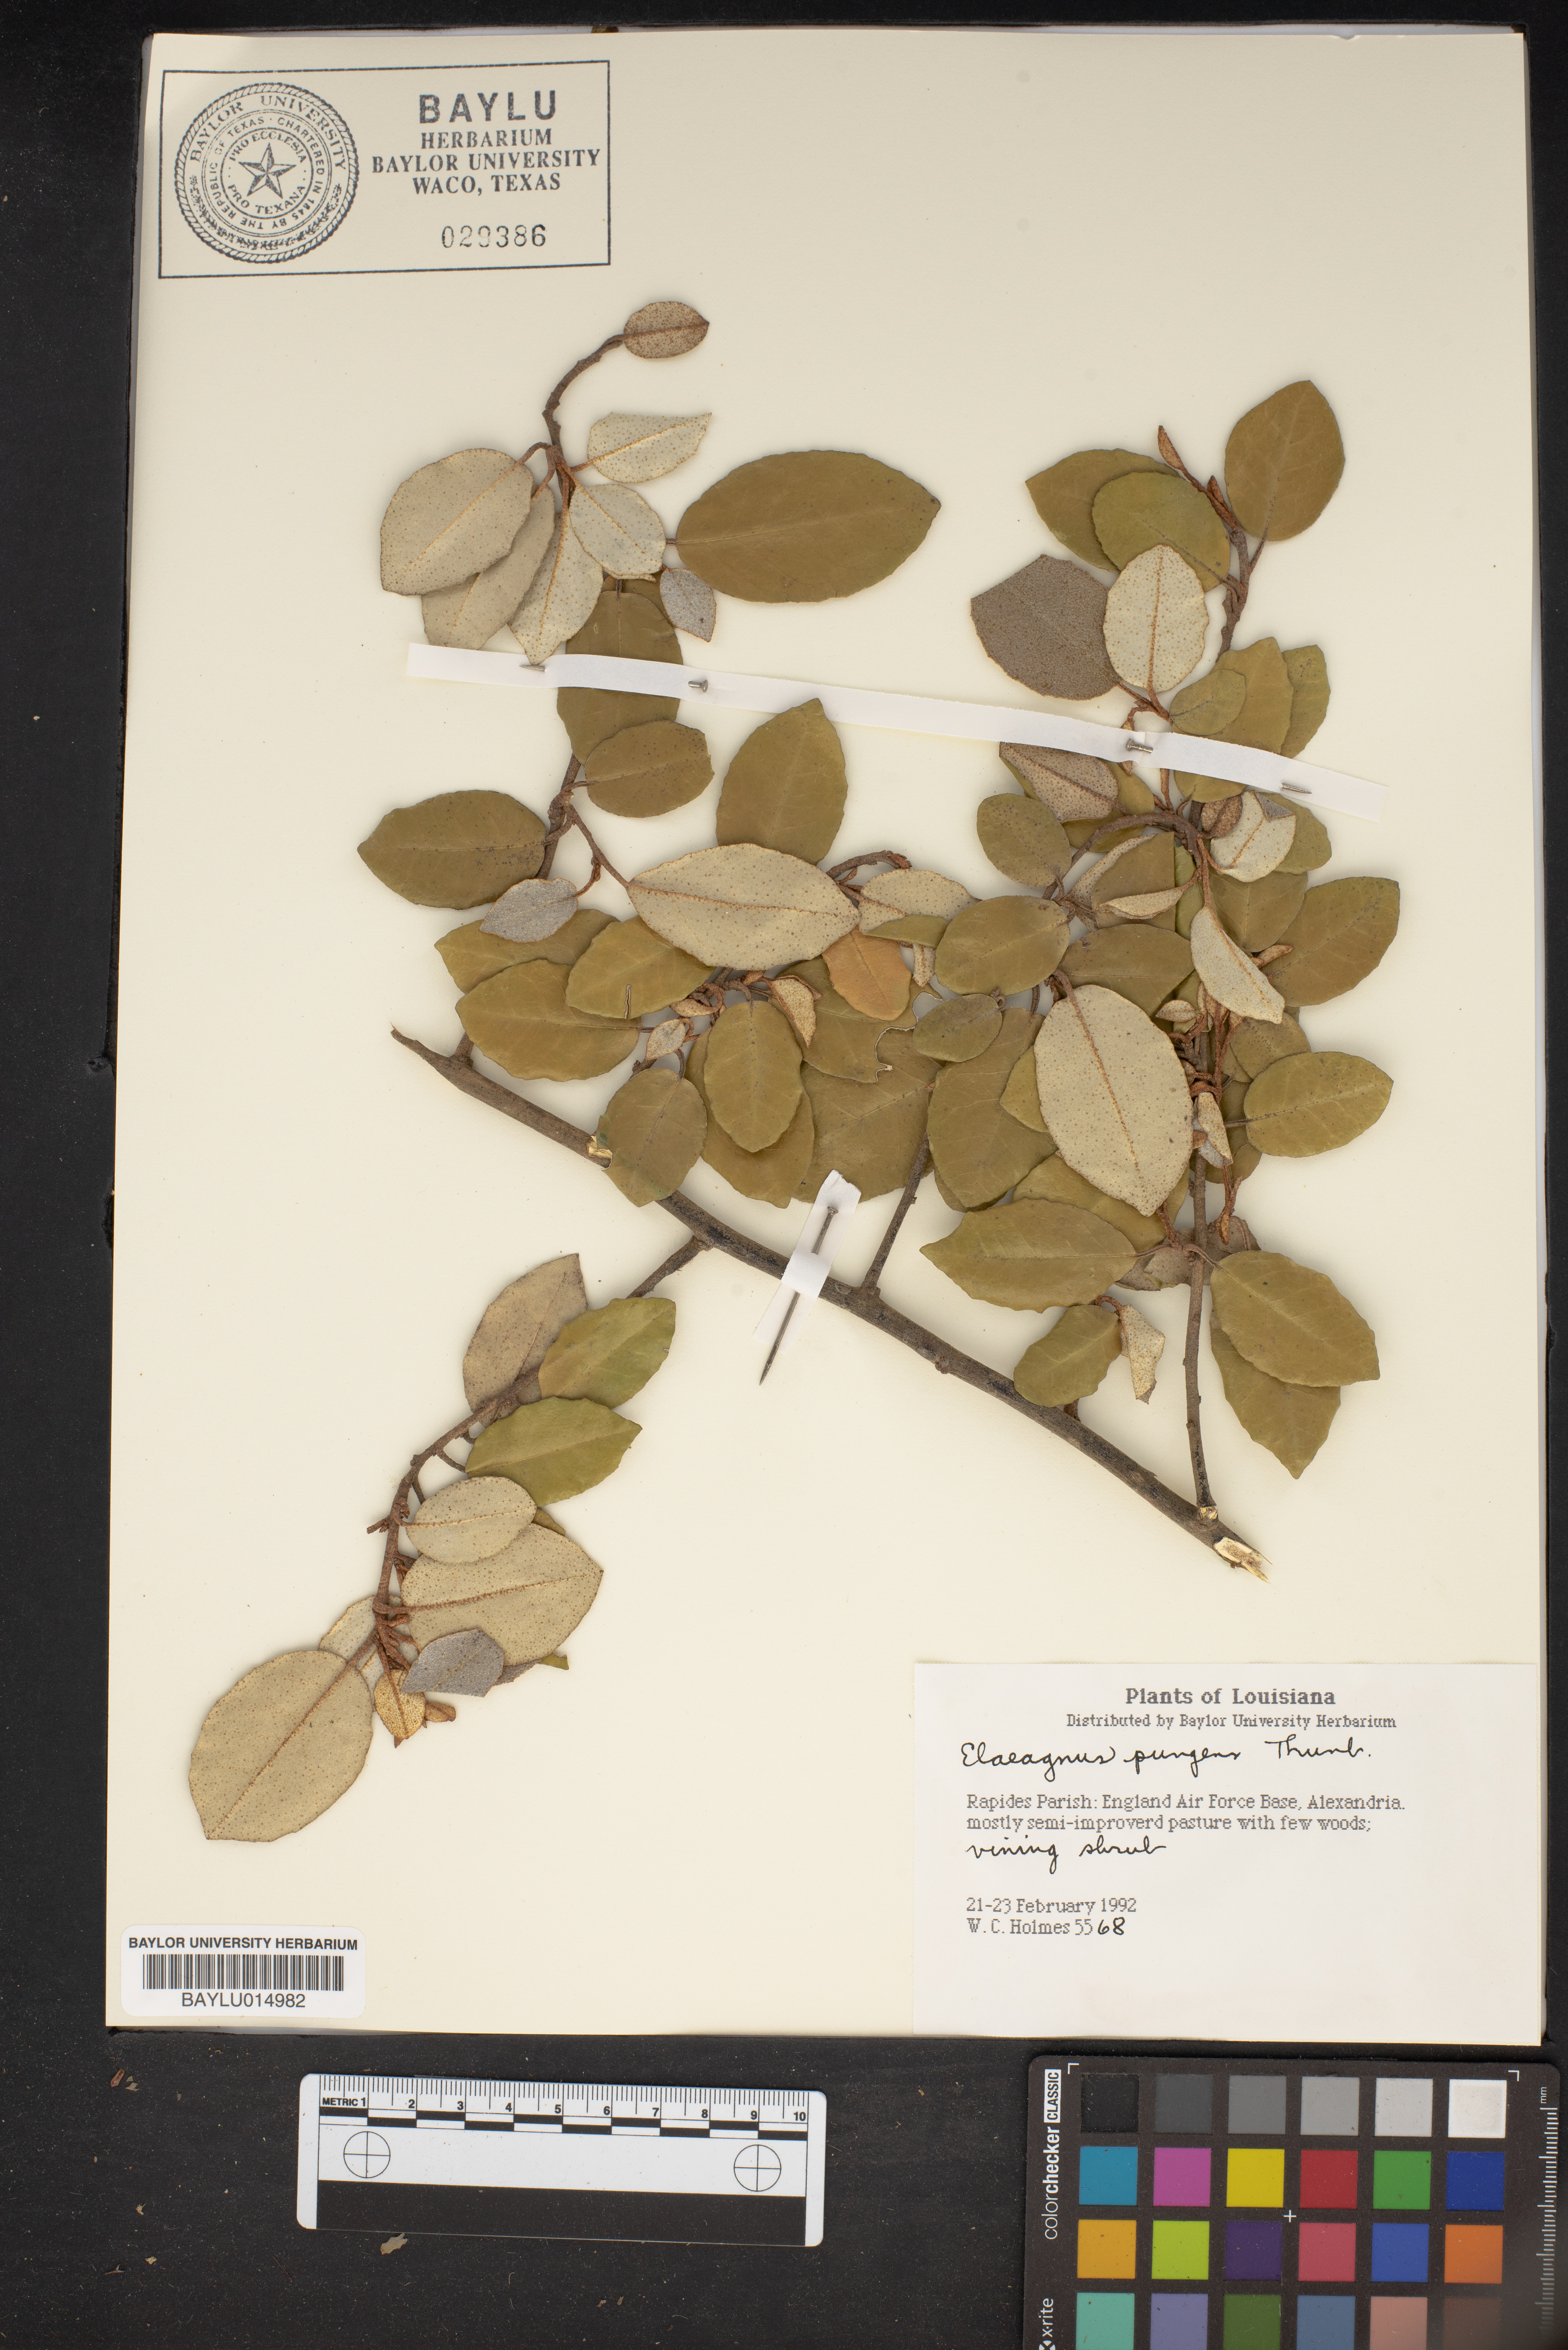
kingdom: Plantae
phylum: Tracheophyta
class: Magnoliopsida
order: Rosales
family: Elaeagnaceae
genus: Elaeagnus
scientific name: Elaeagnus pungens
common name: Spiny oleaster
